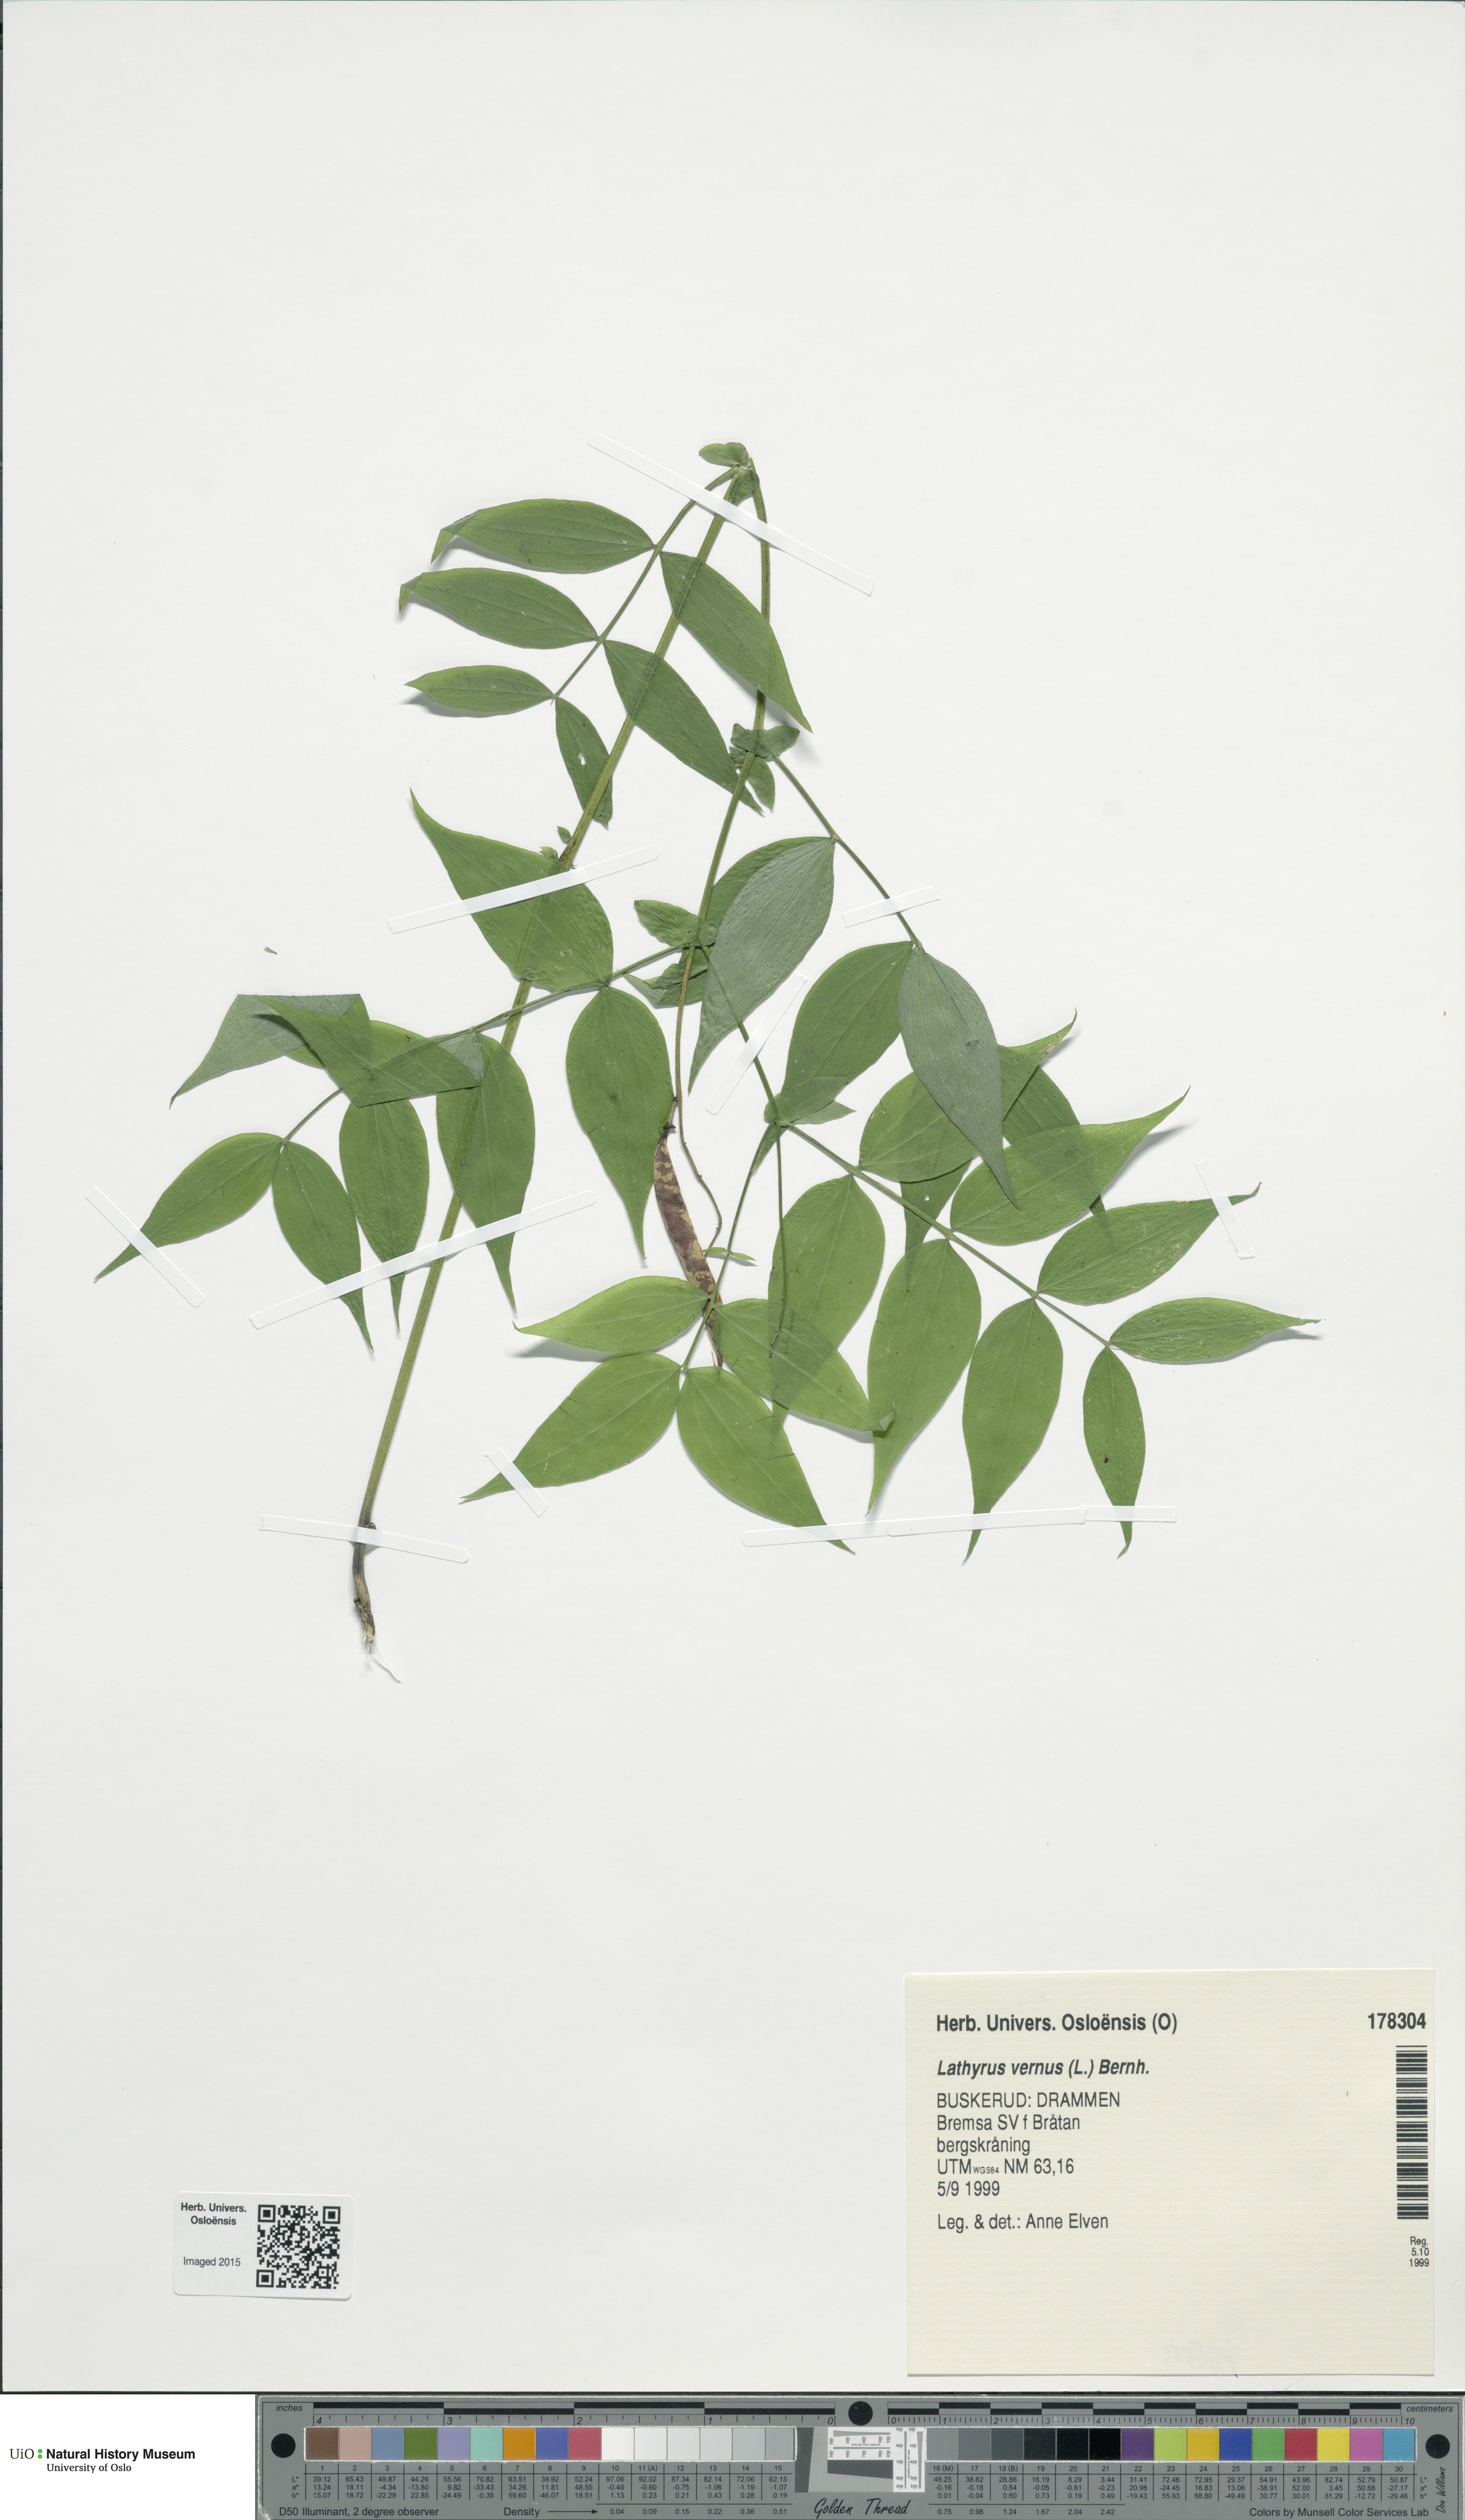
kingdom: Plantae
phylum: Tracheophyta
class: Magnoliopsida
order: Fabales
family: Fabaceae
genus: Lathyrus
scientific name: Lathyrus vernus
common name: Spring pea
